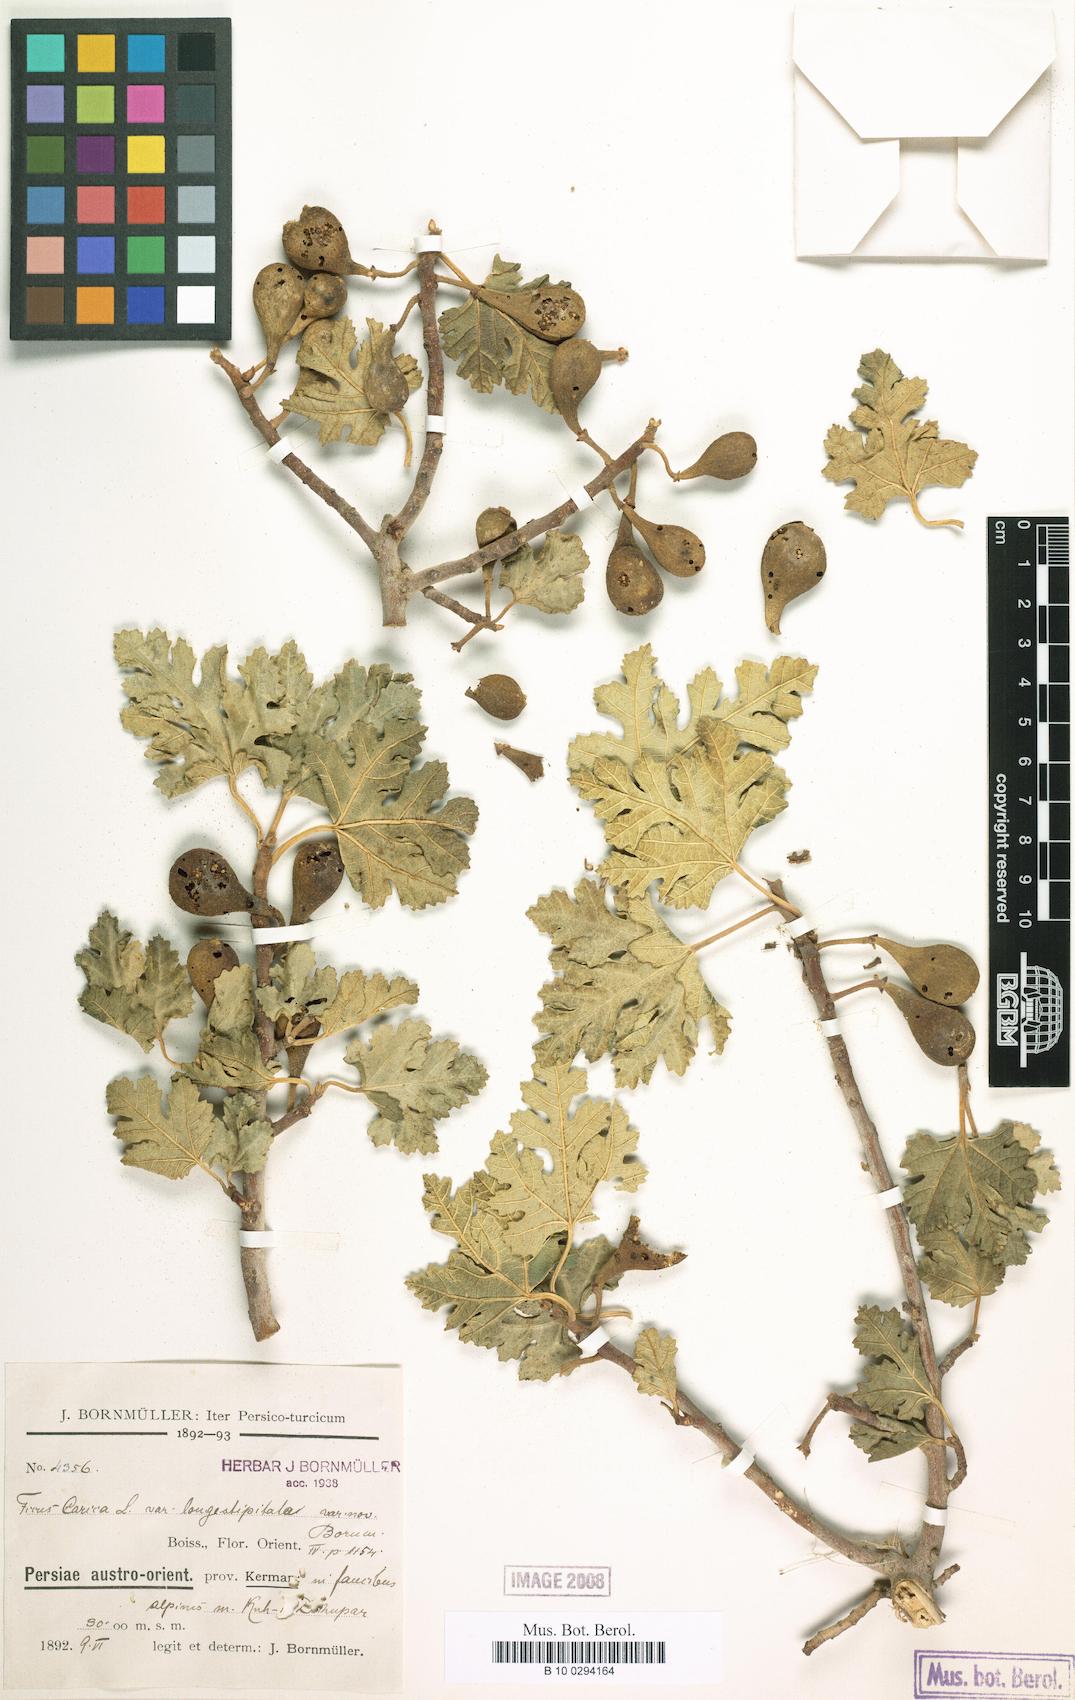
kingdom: Plantae
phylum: Tracheophyta
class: Magnoliopsida
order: Rosales
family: Moraceae
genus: Ficus
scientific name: Ficus carica
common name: Fig
